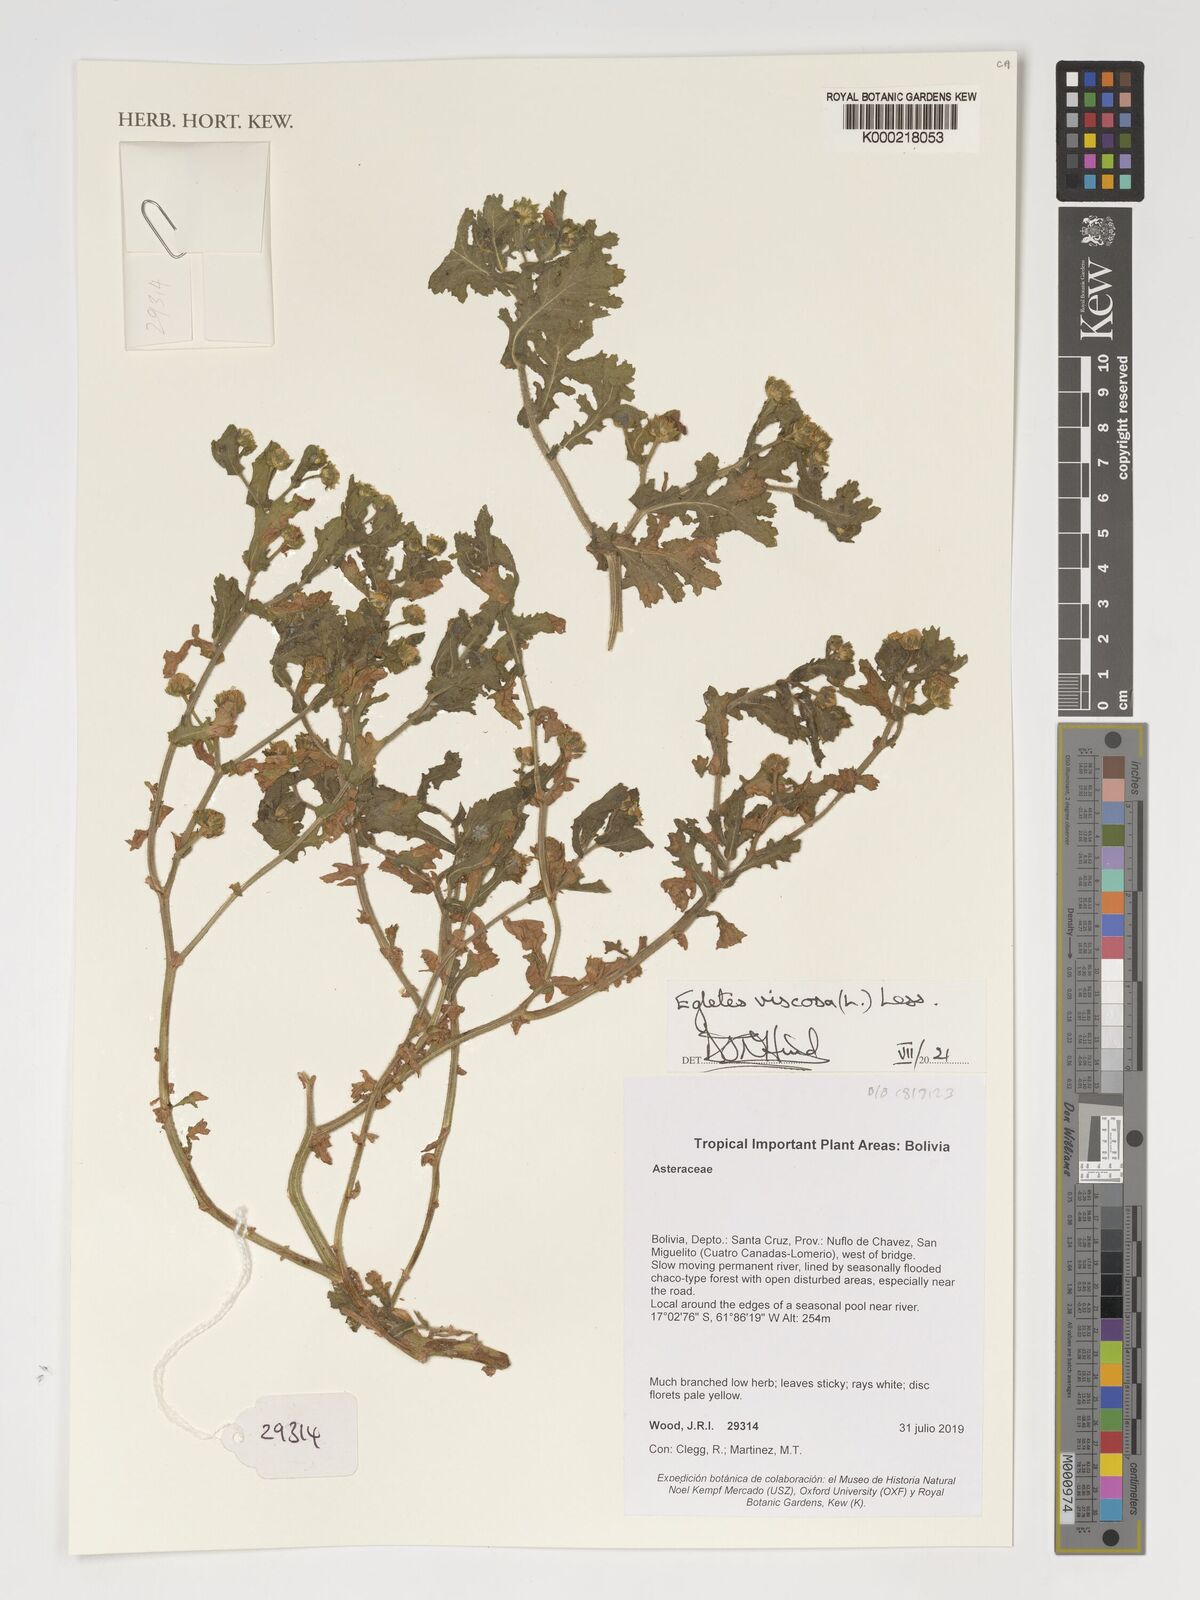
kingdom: Plantae
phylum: Tracheophyta
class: Magnoliopsida
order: Asterales
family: Asteraceae
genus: Egletes
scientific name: Egletes viscosa
